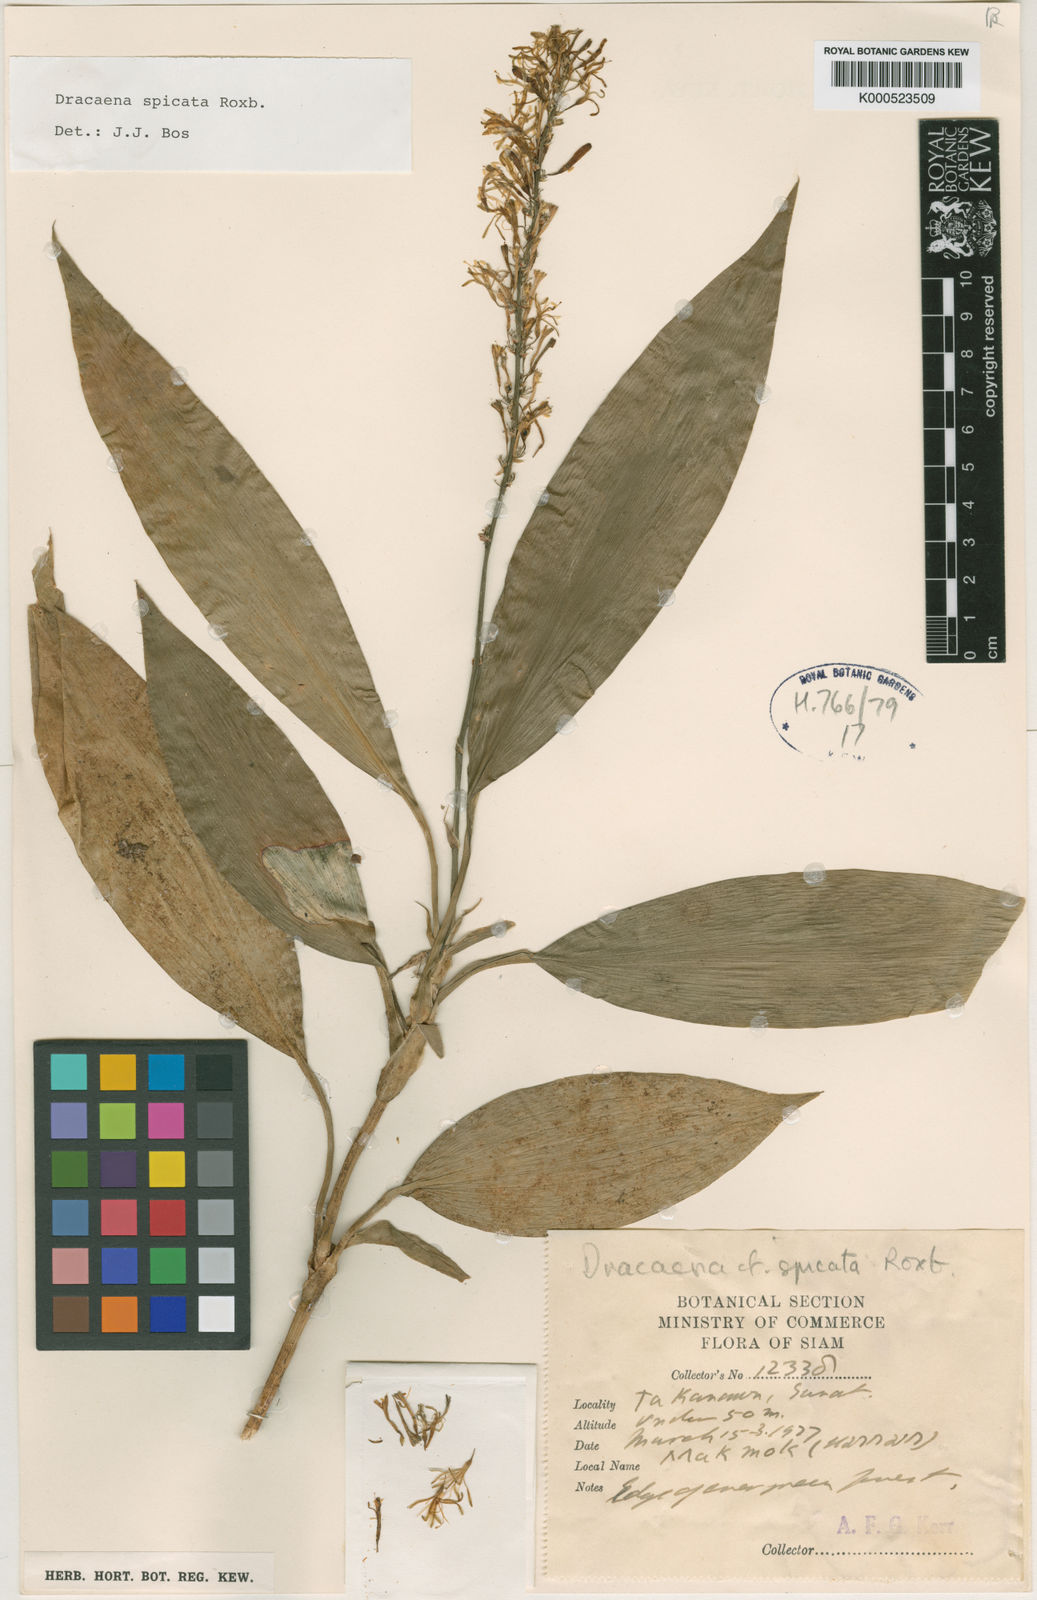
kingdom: Plantae
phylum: Tracheophyta
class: Liliopsida
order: Asparagales
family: Asparagaceae
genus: Dracaena
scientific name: Dracaena spicata
